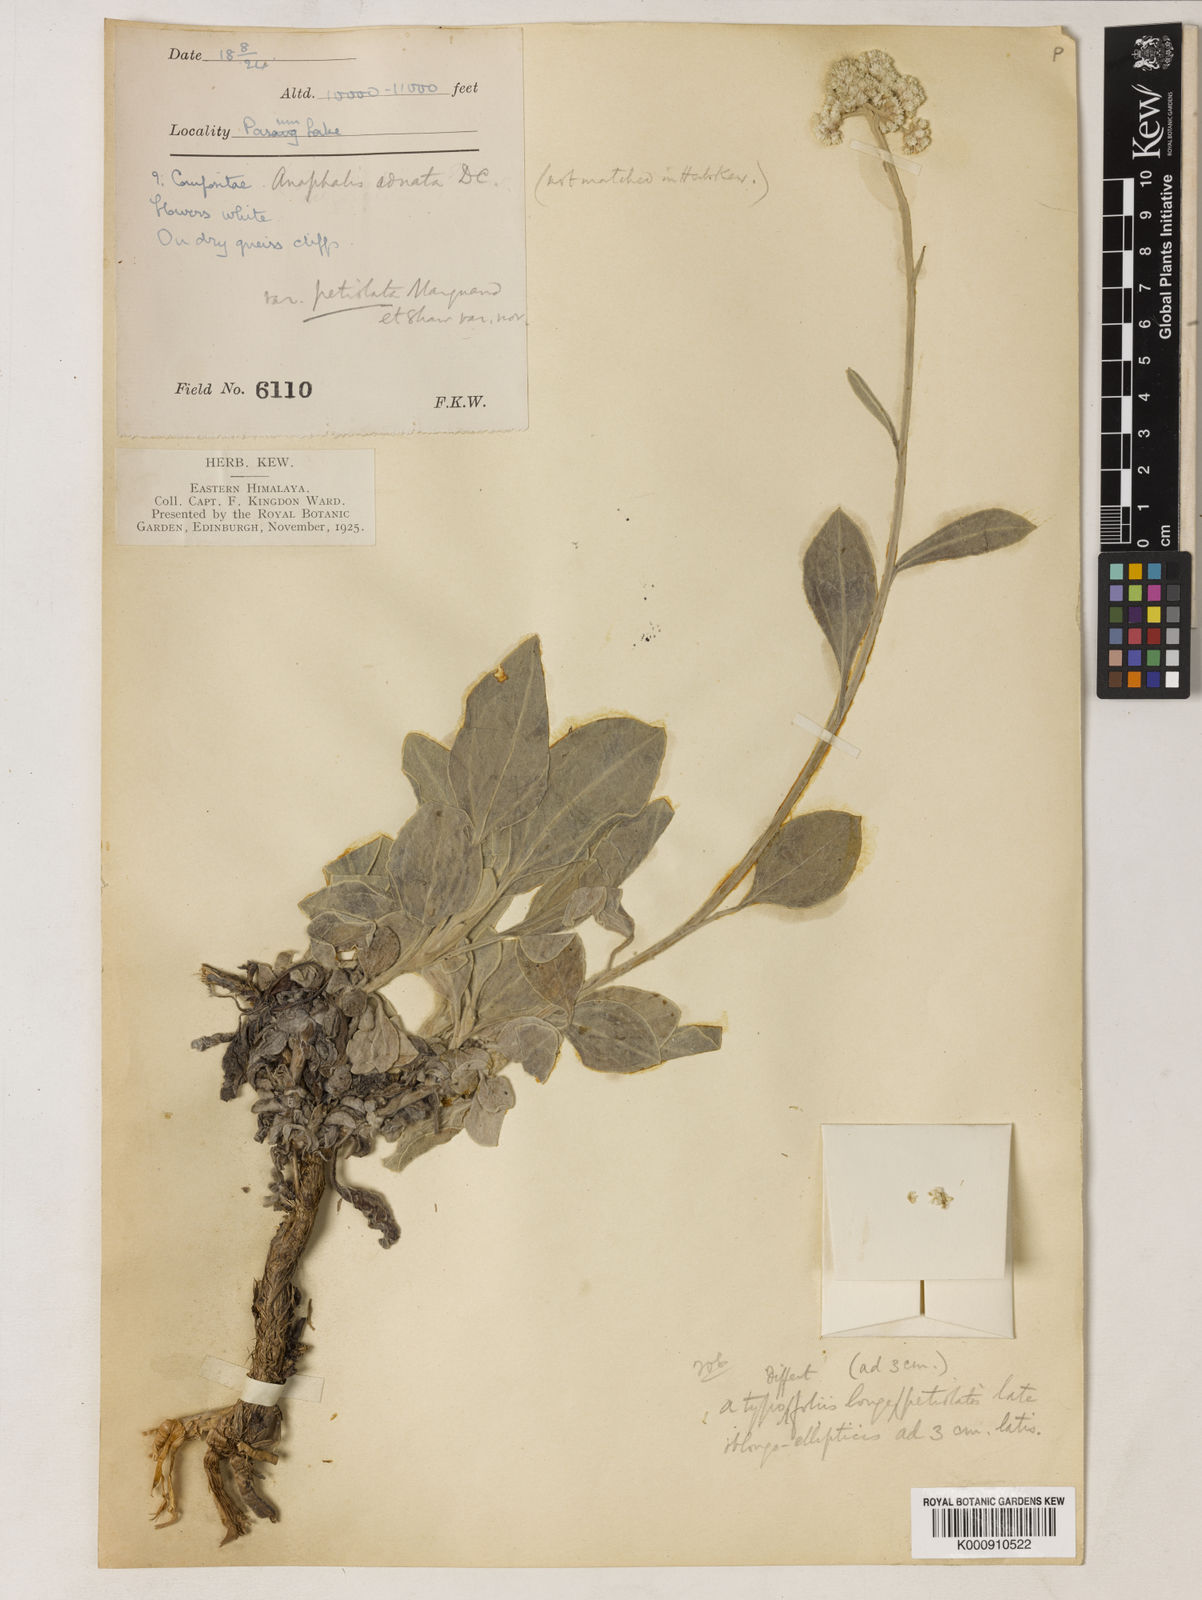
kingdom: Plantae
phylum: Tracheophyta
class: Magnoliopsida
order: Asterales
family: Asteraceae
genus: Pseudognaphalium
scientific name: Pseudognaphalium adnatum
